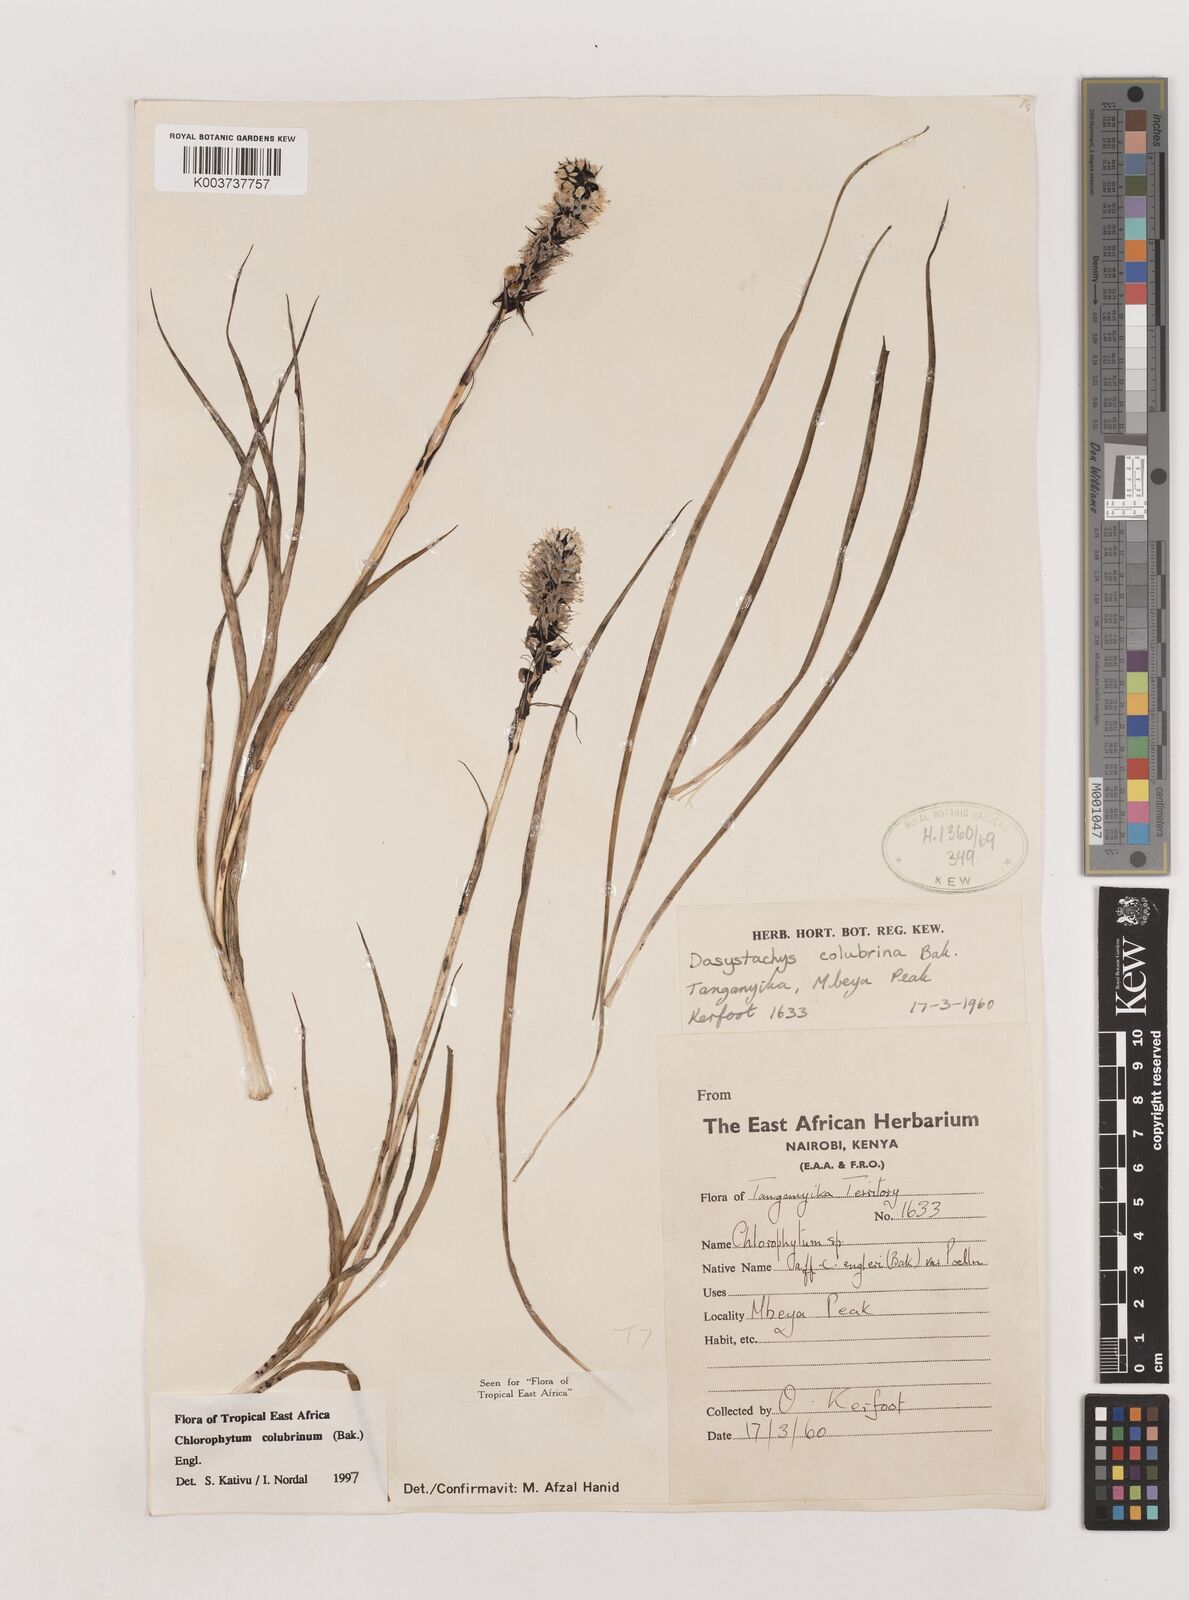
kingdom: Plantae
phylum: Tracheophyta
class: Liliopsida
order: Asparagales
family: Asparagaceae
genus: Chlorophytum
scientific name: Chlorophytum colubrinum
